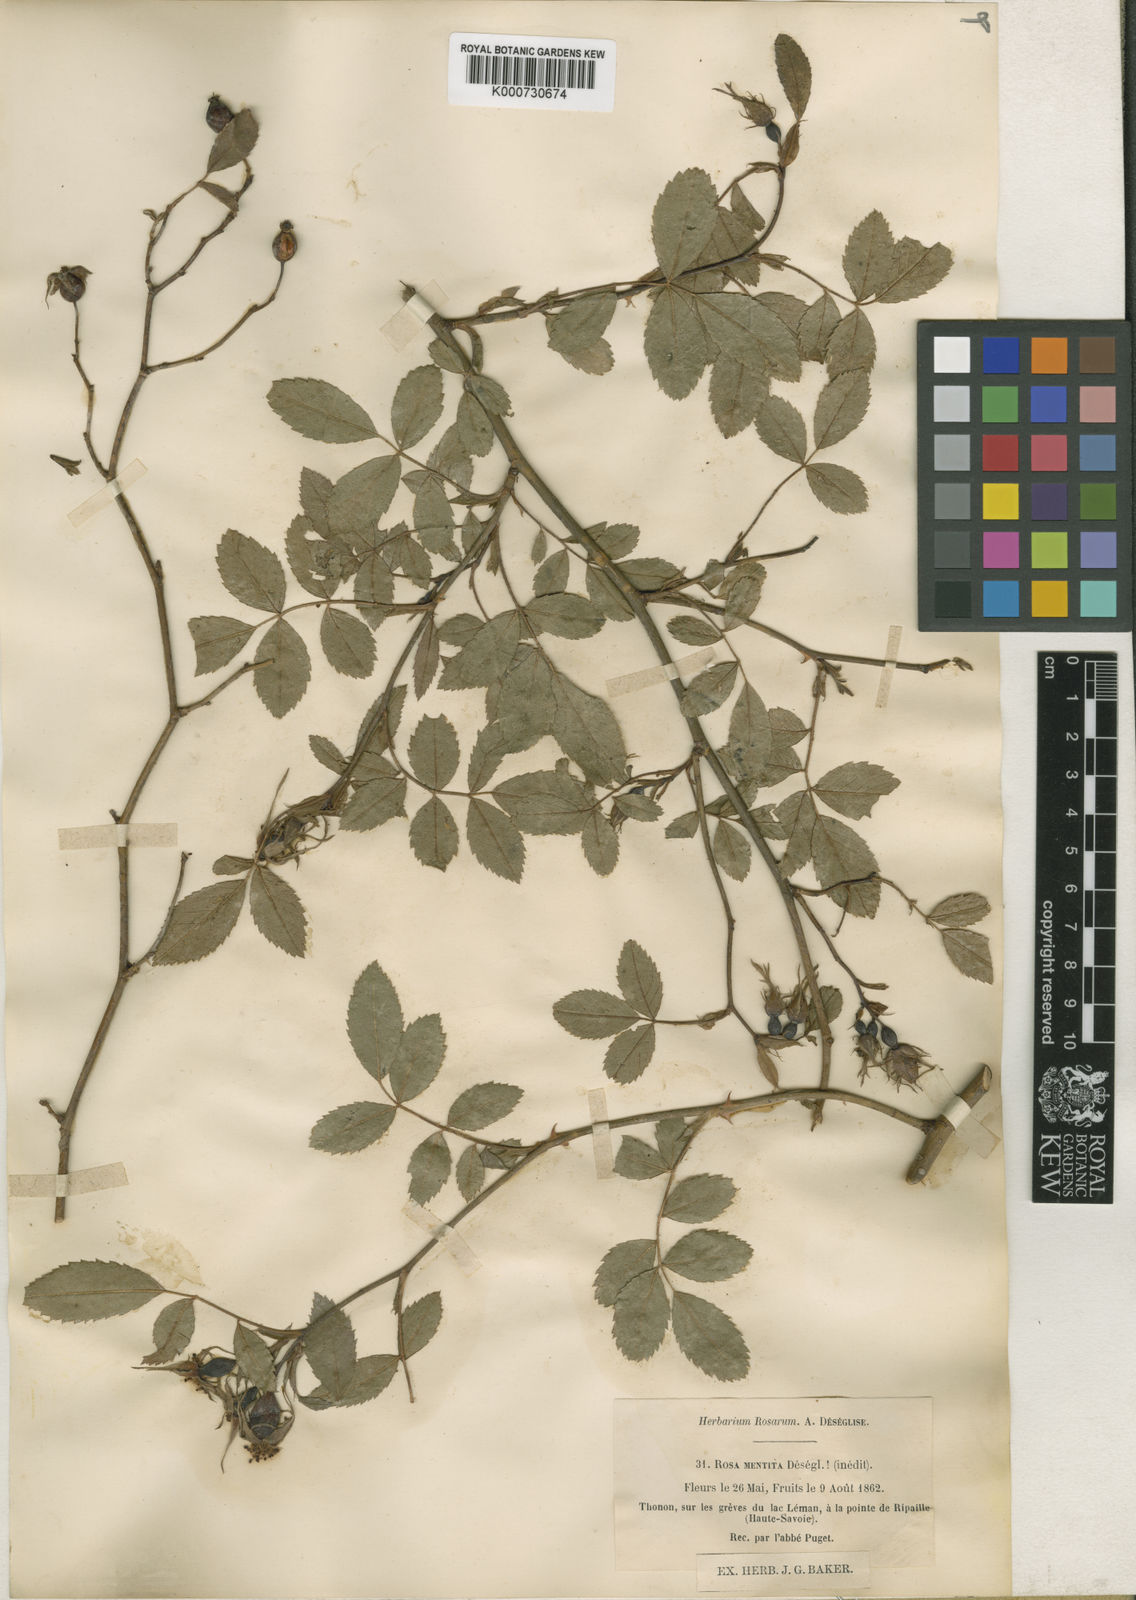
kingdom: Plantae
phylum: Tracheophyta
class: Magnoliopsida
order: Rosales
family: Rosaceae
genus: Rosa
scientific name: Rosa agrestis
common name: Fieldbriar
